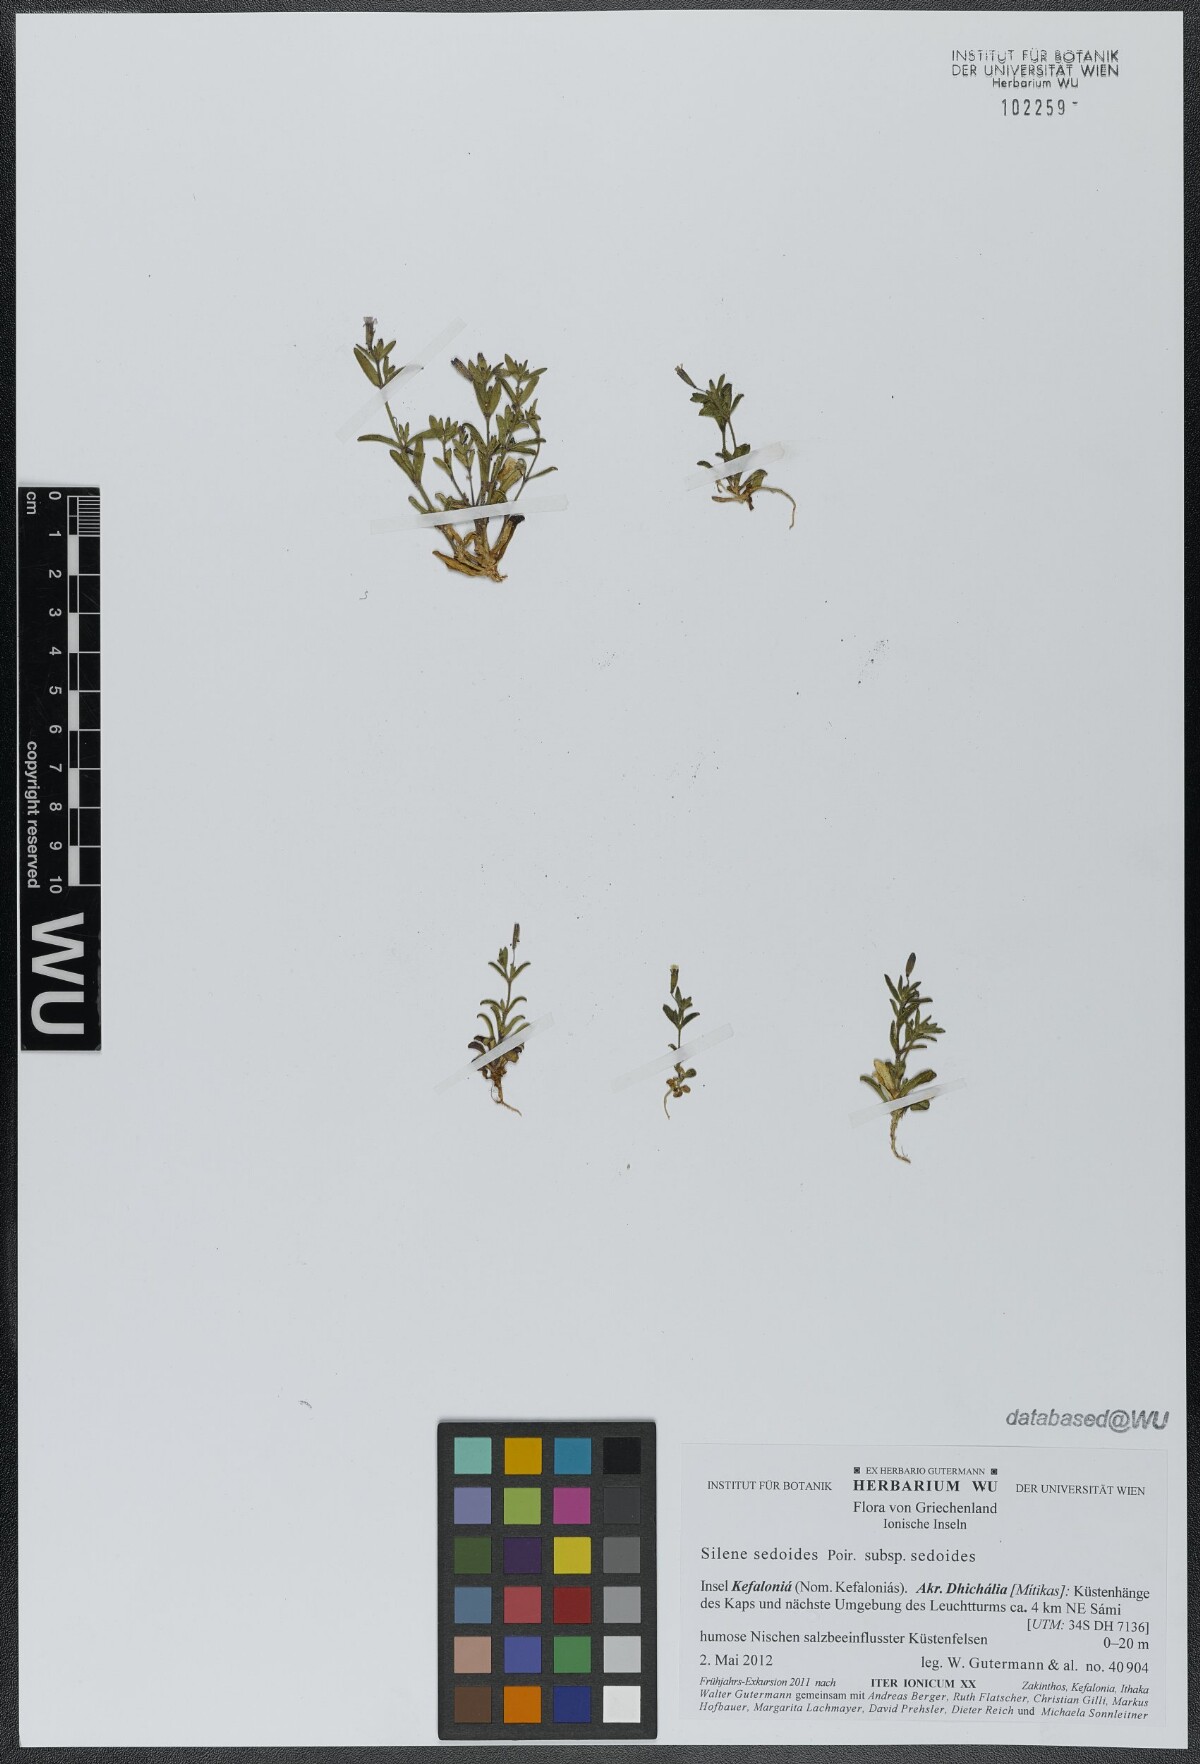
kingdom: Plantae
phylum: Tracheophyta
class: Magnoliopsida
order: Caryophyllales
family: Caryophyllaceae
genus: Silene
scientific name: Silene sedoides
